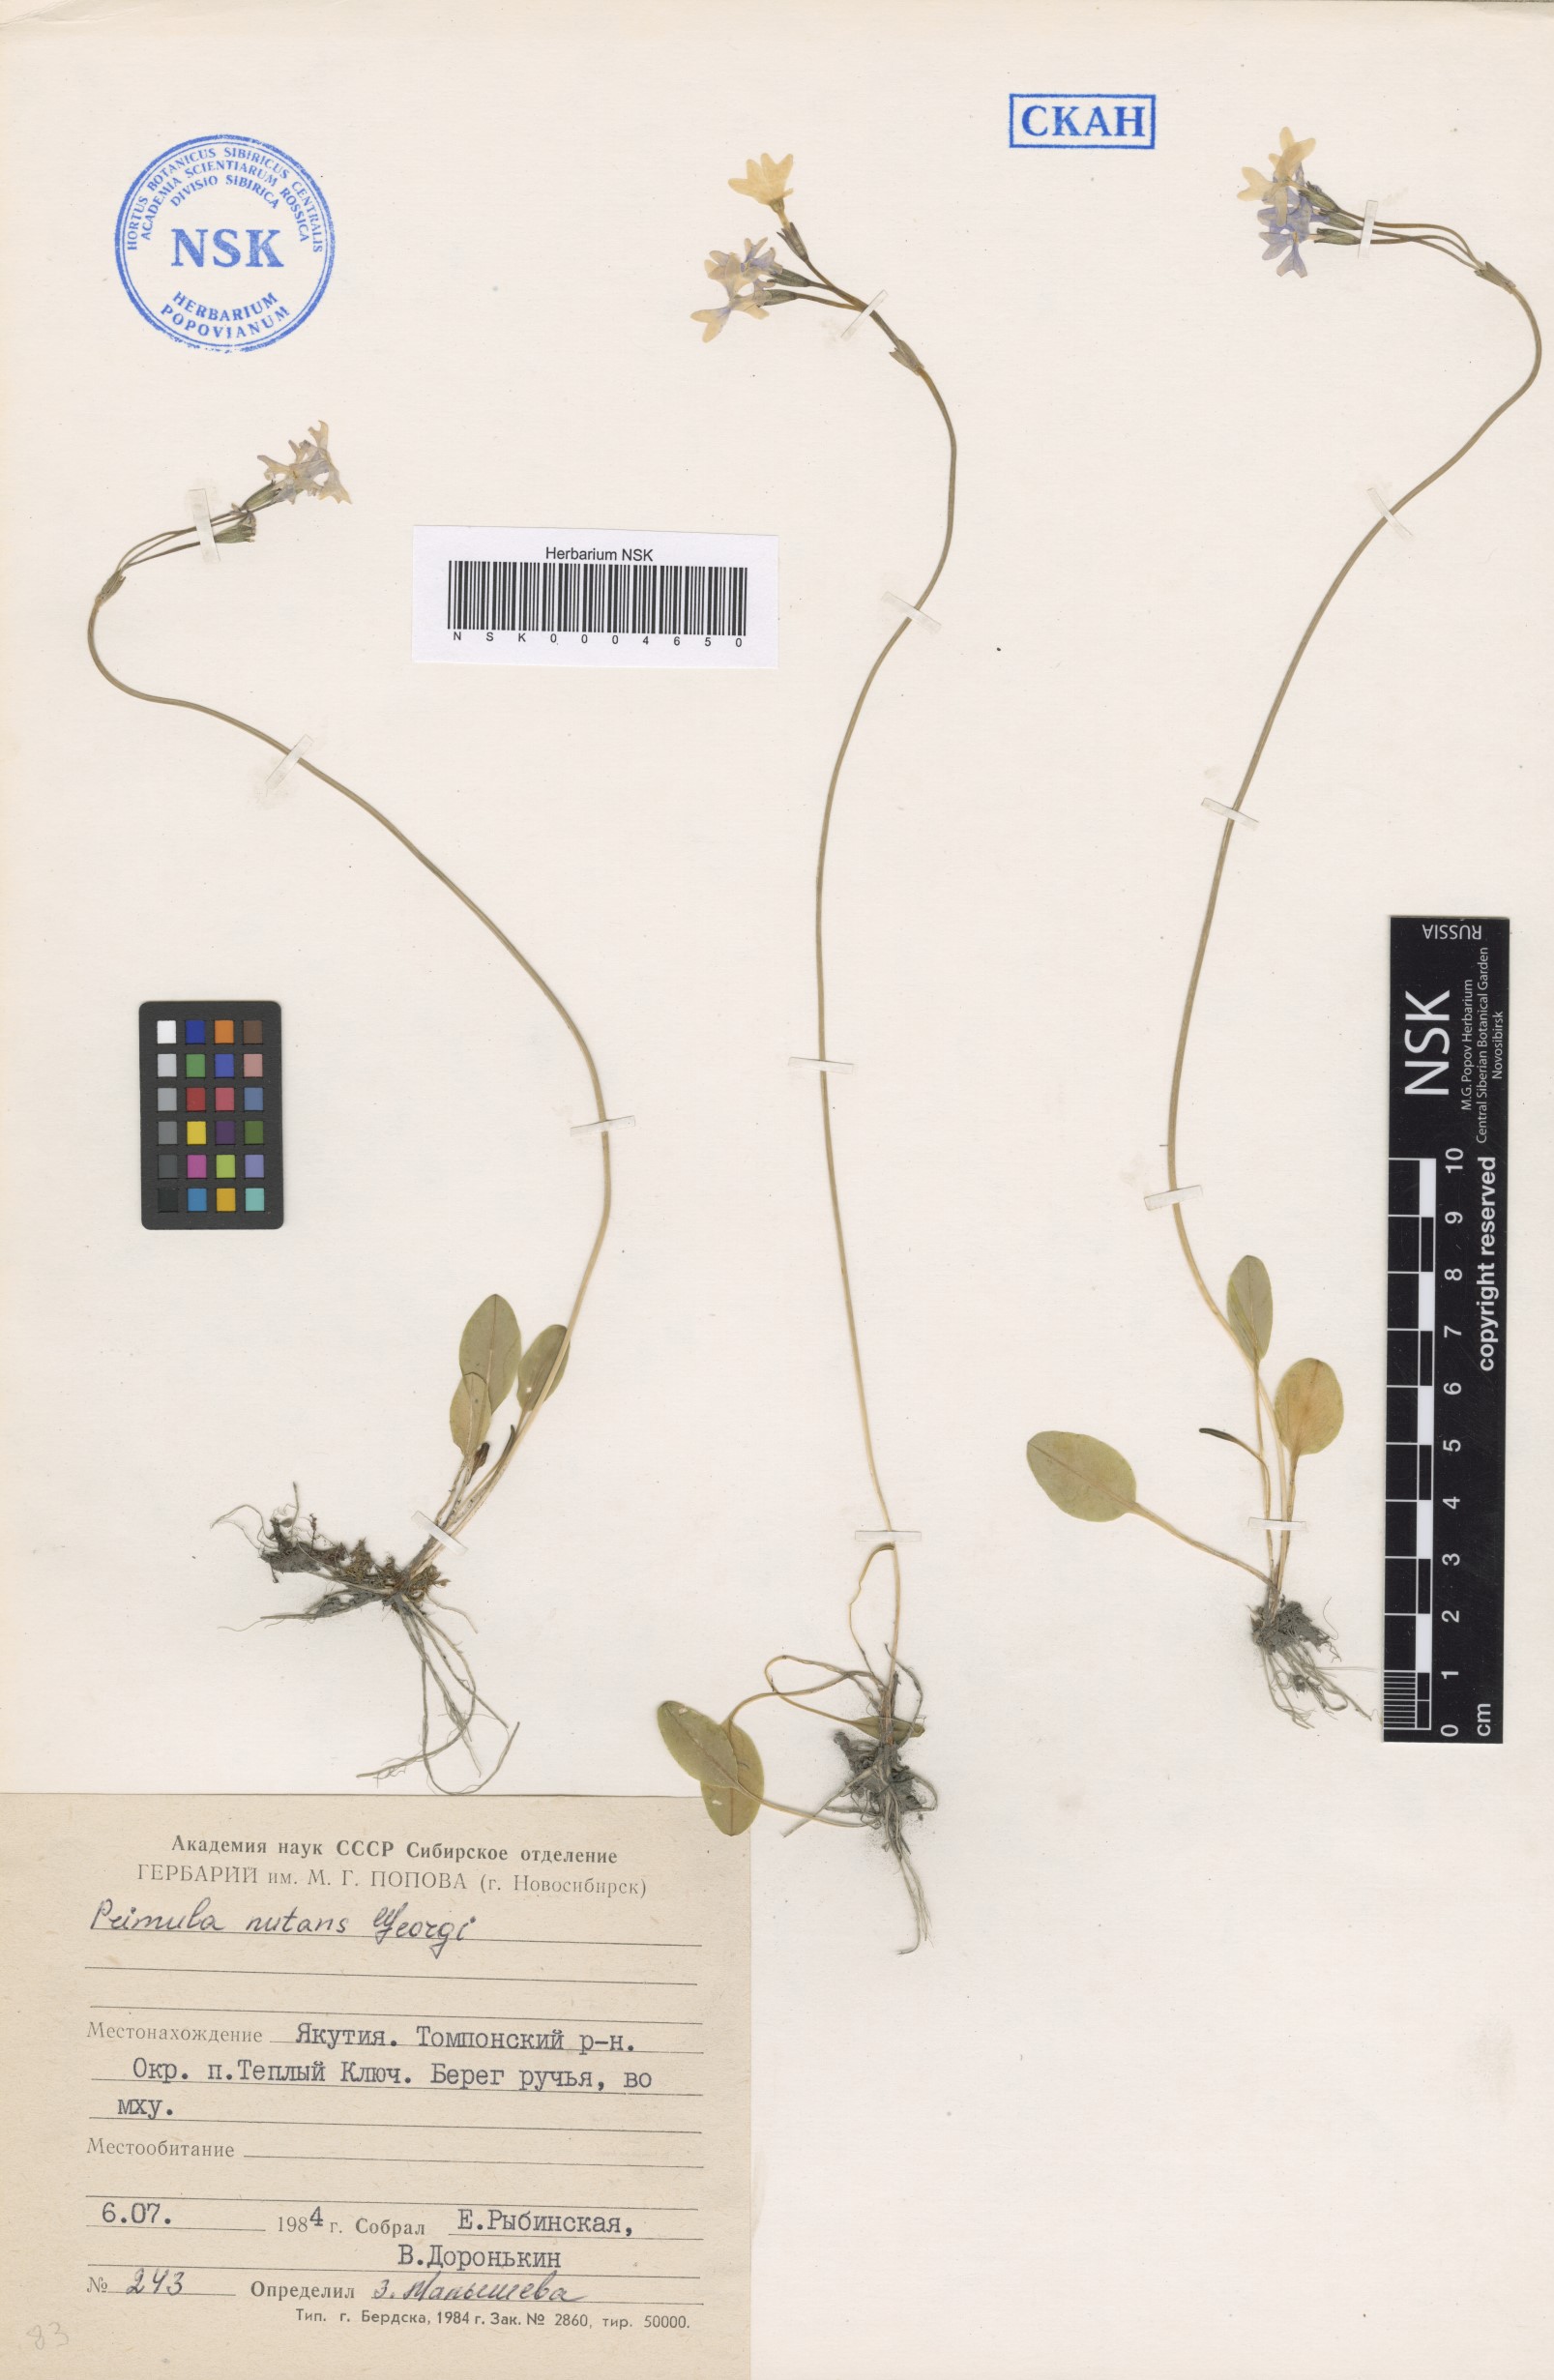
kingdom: Plantae
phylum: Tracheophyta
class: Magnoliopsida
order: Ericales
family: Primulaceae
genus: Primula
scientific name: Primula nutans
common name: Siberian primrose
